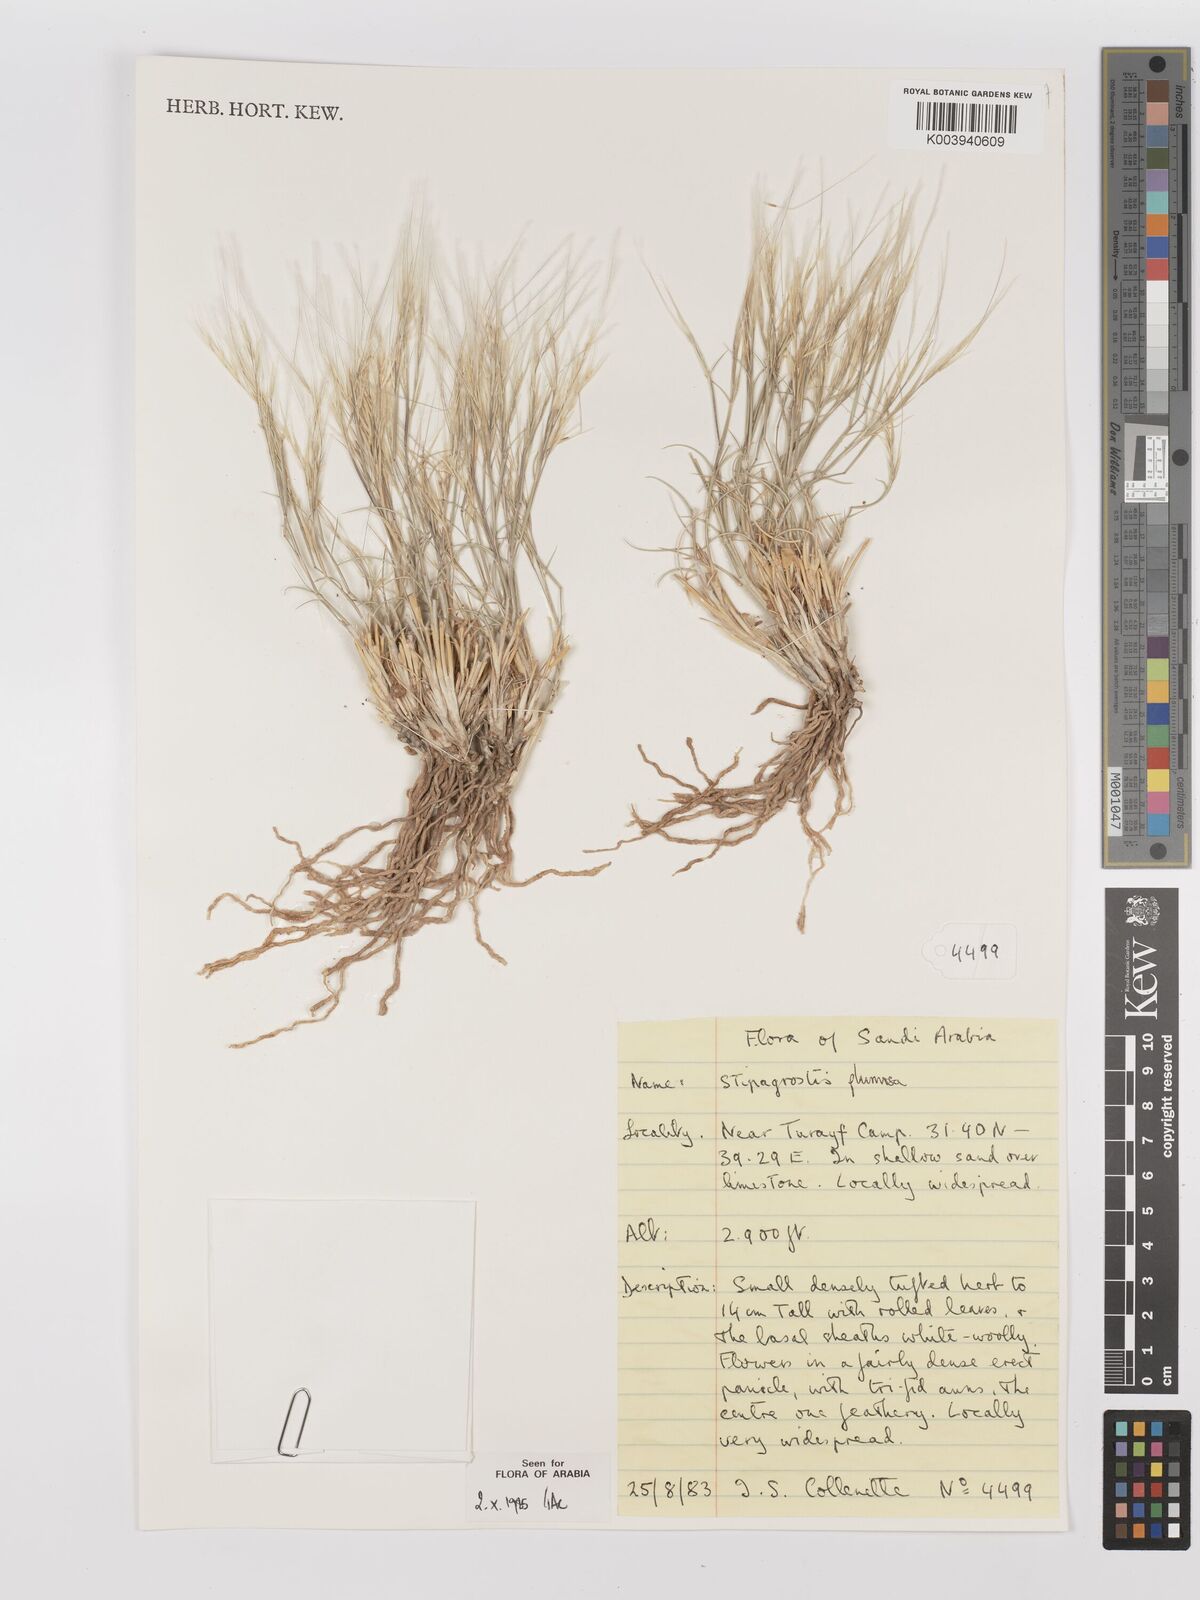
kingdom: Plantae
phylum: Tracheophyta
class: Liliopsida
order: Poales
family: Poaceae
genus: Stipagrostis
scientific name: Stipagrostis plumosa
